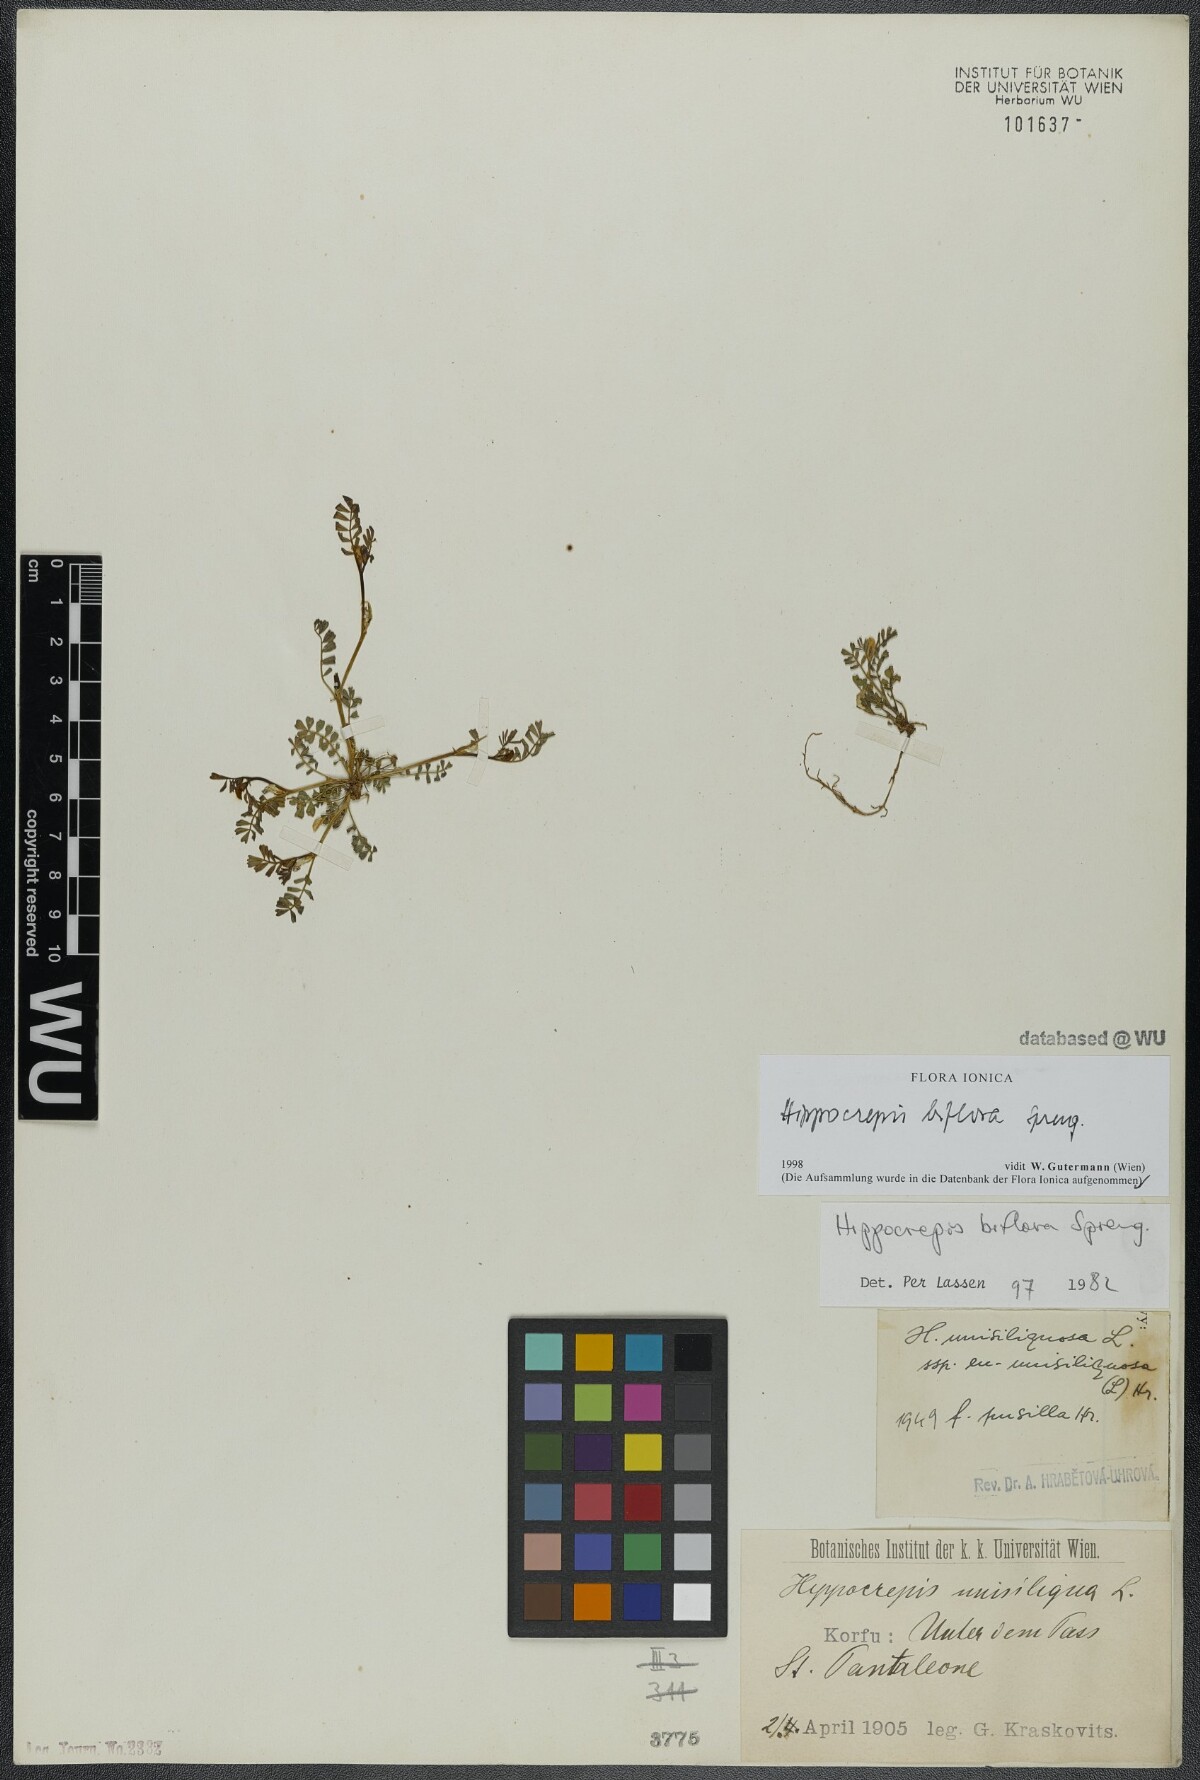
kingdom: Plantae
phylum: Tracheophyta
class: Magnoliopsida
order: Fabales
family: Fabaceae
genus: Hippocrepis
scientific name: Hippocrepis biflora
